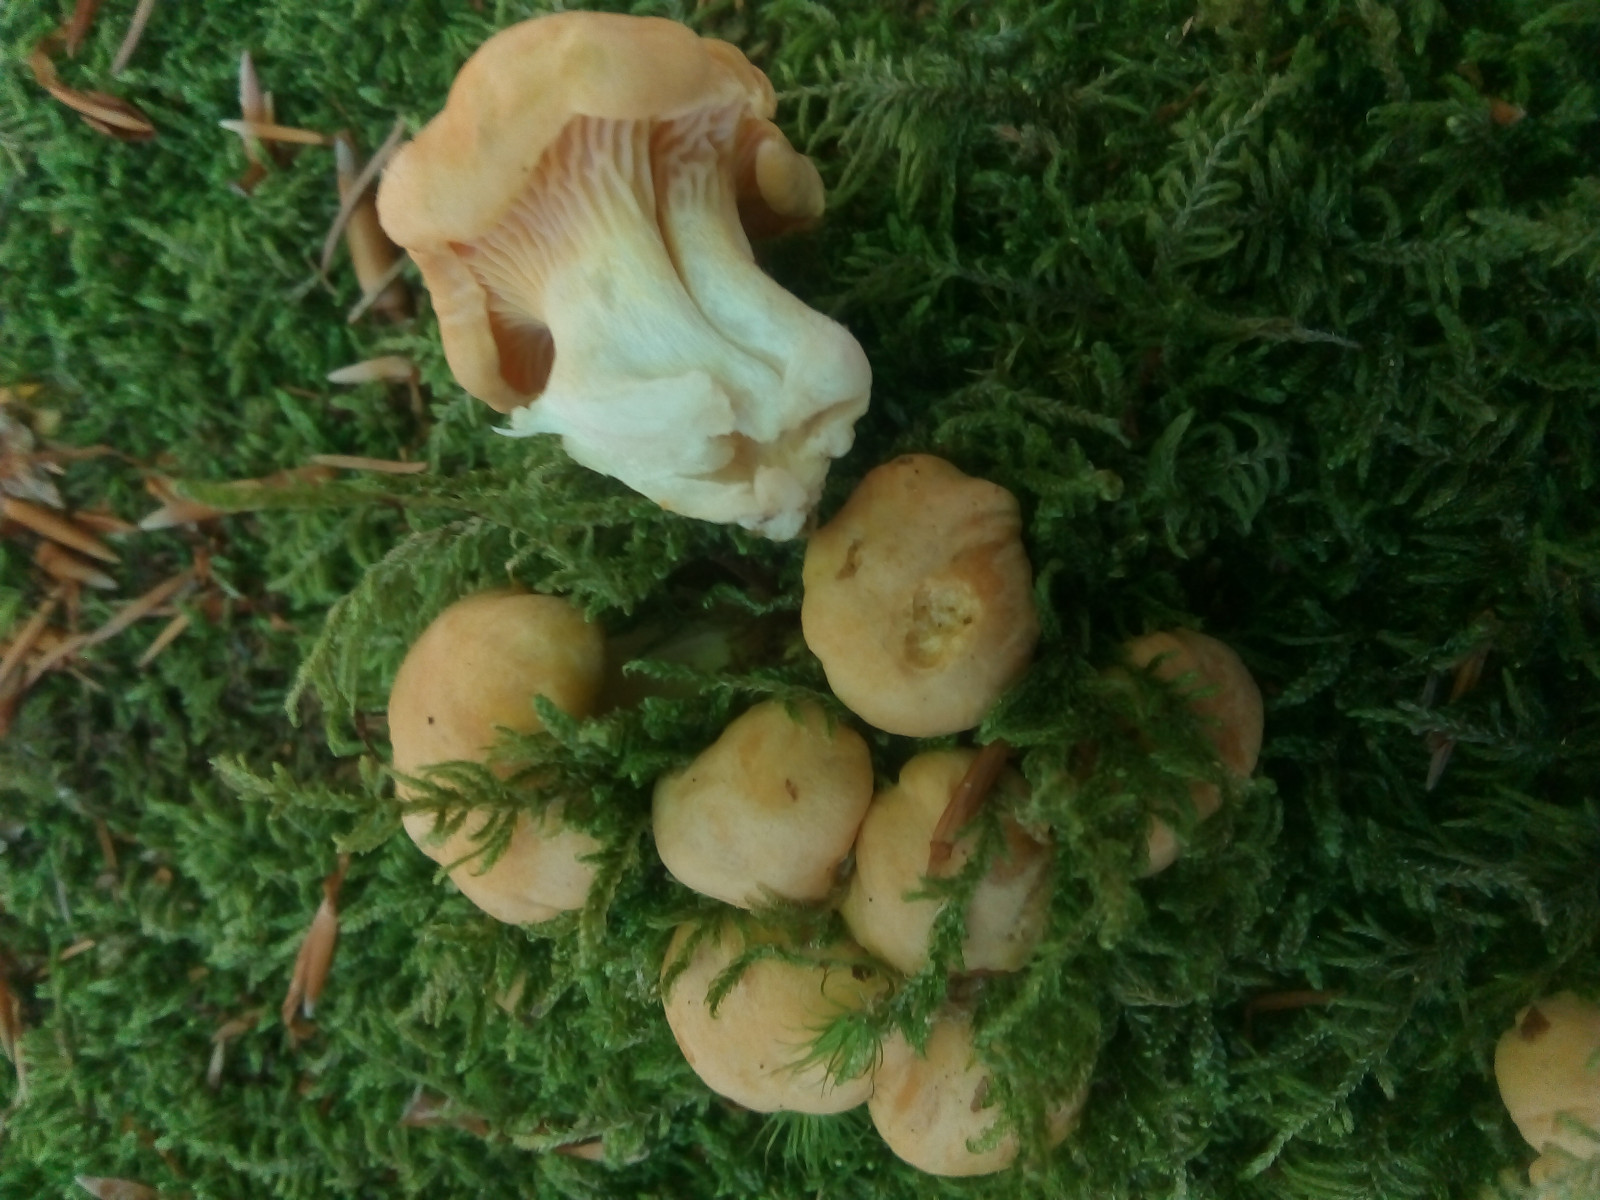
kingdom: Fungi
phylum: Basidiomycota
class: Agaricomycetes
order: Cantharellales
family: Hydnaceae
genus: Cantharellus
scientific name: Cantharellus pallens
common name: bleg kantarel
